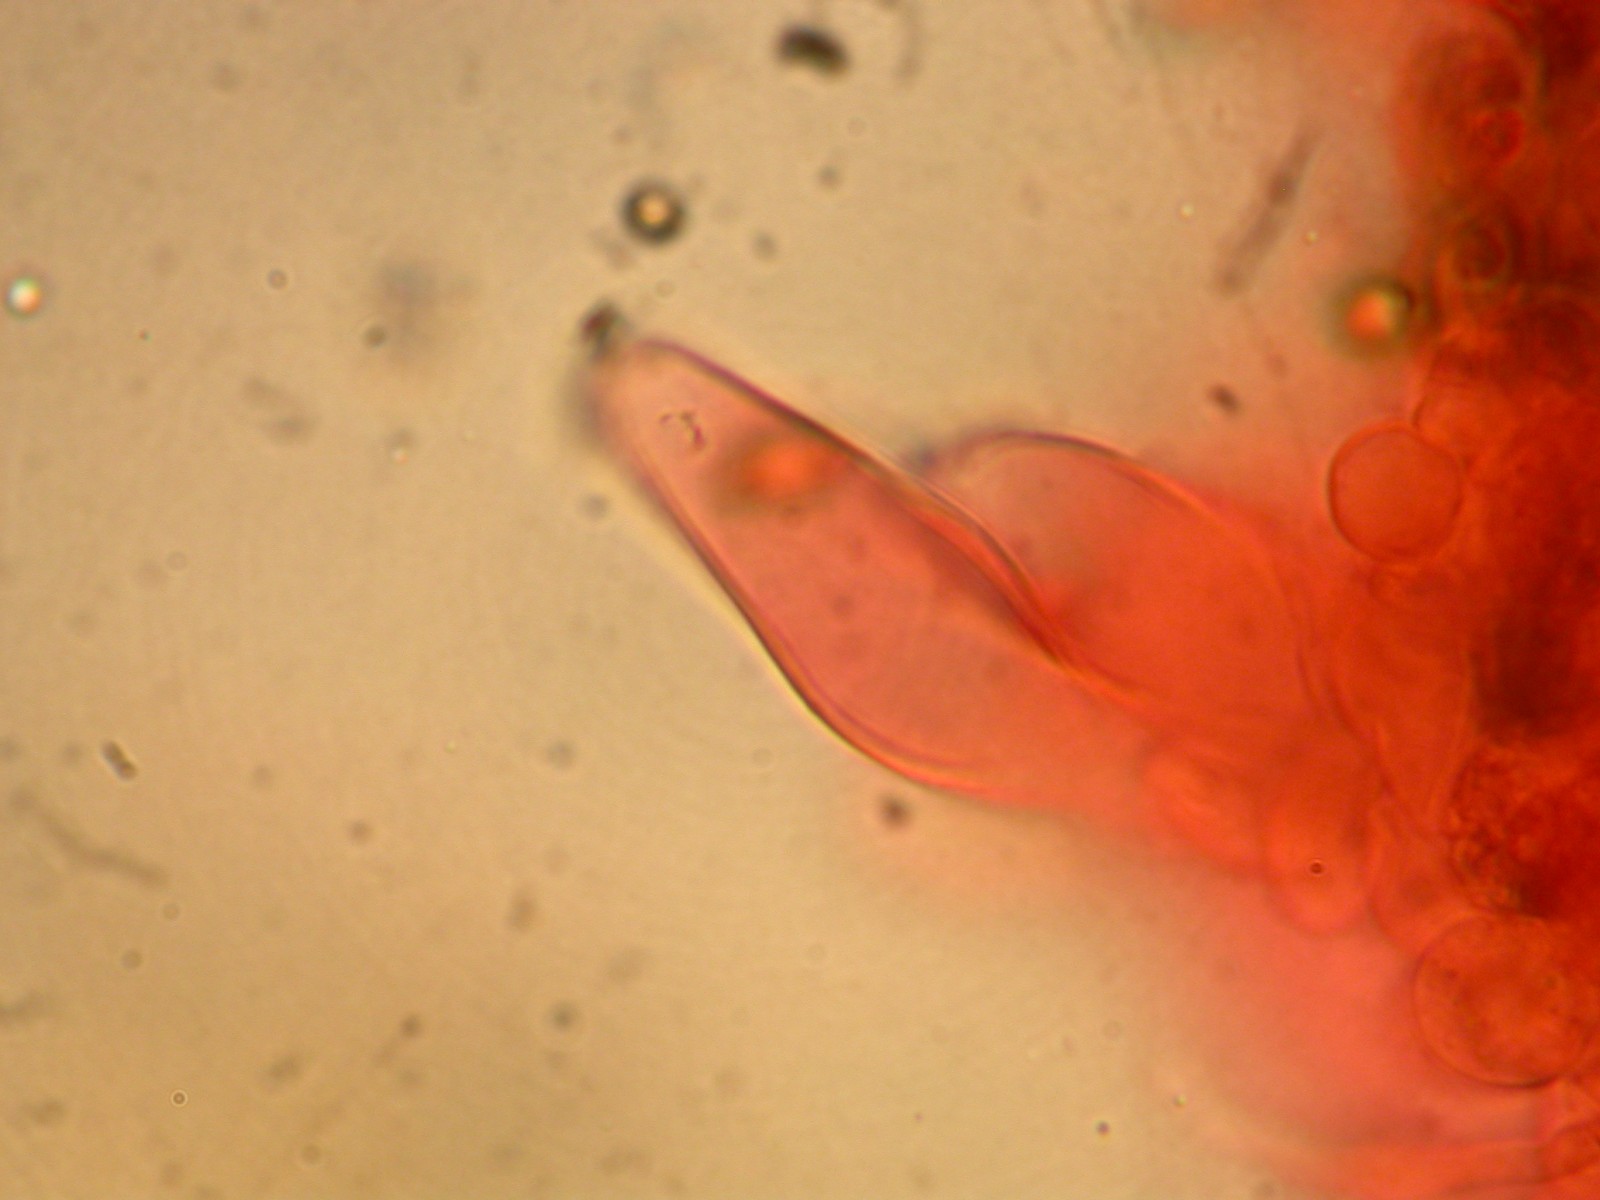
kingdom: Fungi
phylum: Basidiomycota
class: Agaricomycetes
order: Agaricales
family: Inocybaceae
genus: Inocybe
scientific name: Inocybe fuscidula
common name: brunfibret trævlhat
